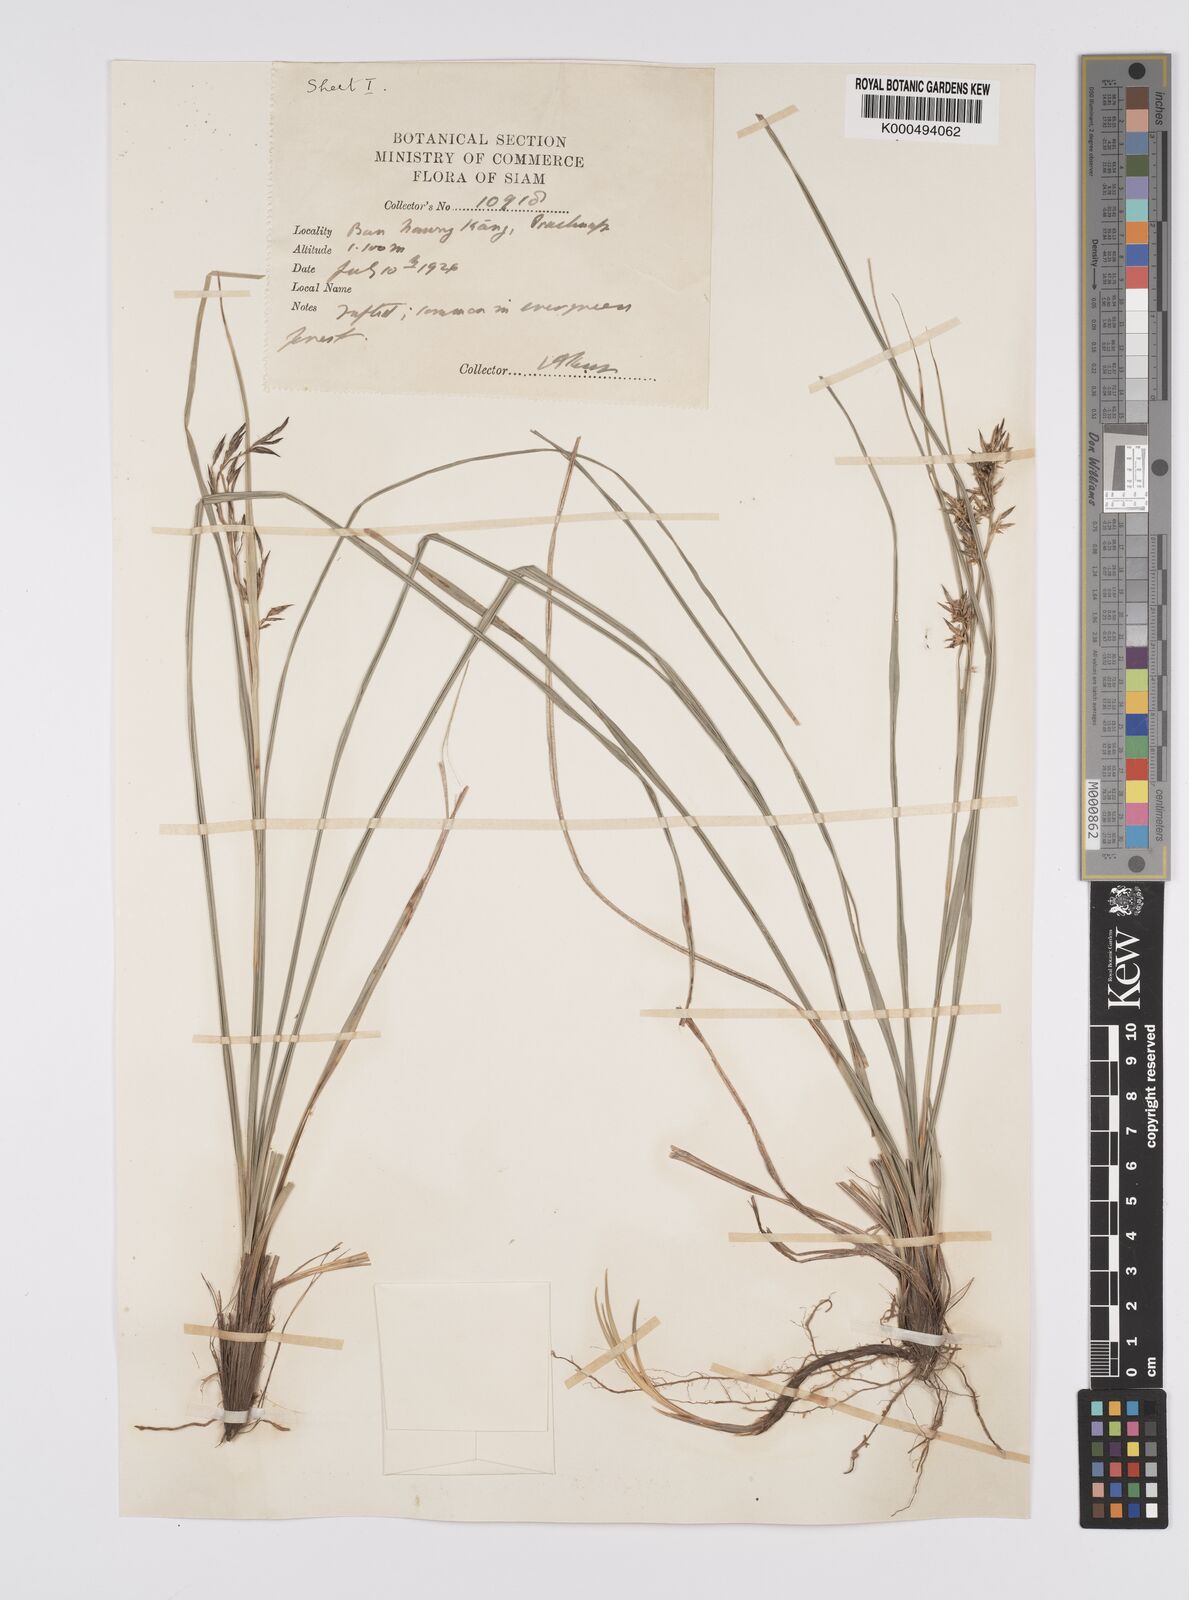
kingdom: Plantae
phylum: Tracheophyta
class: Liliopsida
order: Poales
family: Cyperaceae
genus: Carex
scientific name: Carex indica
